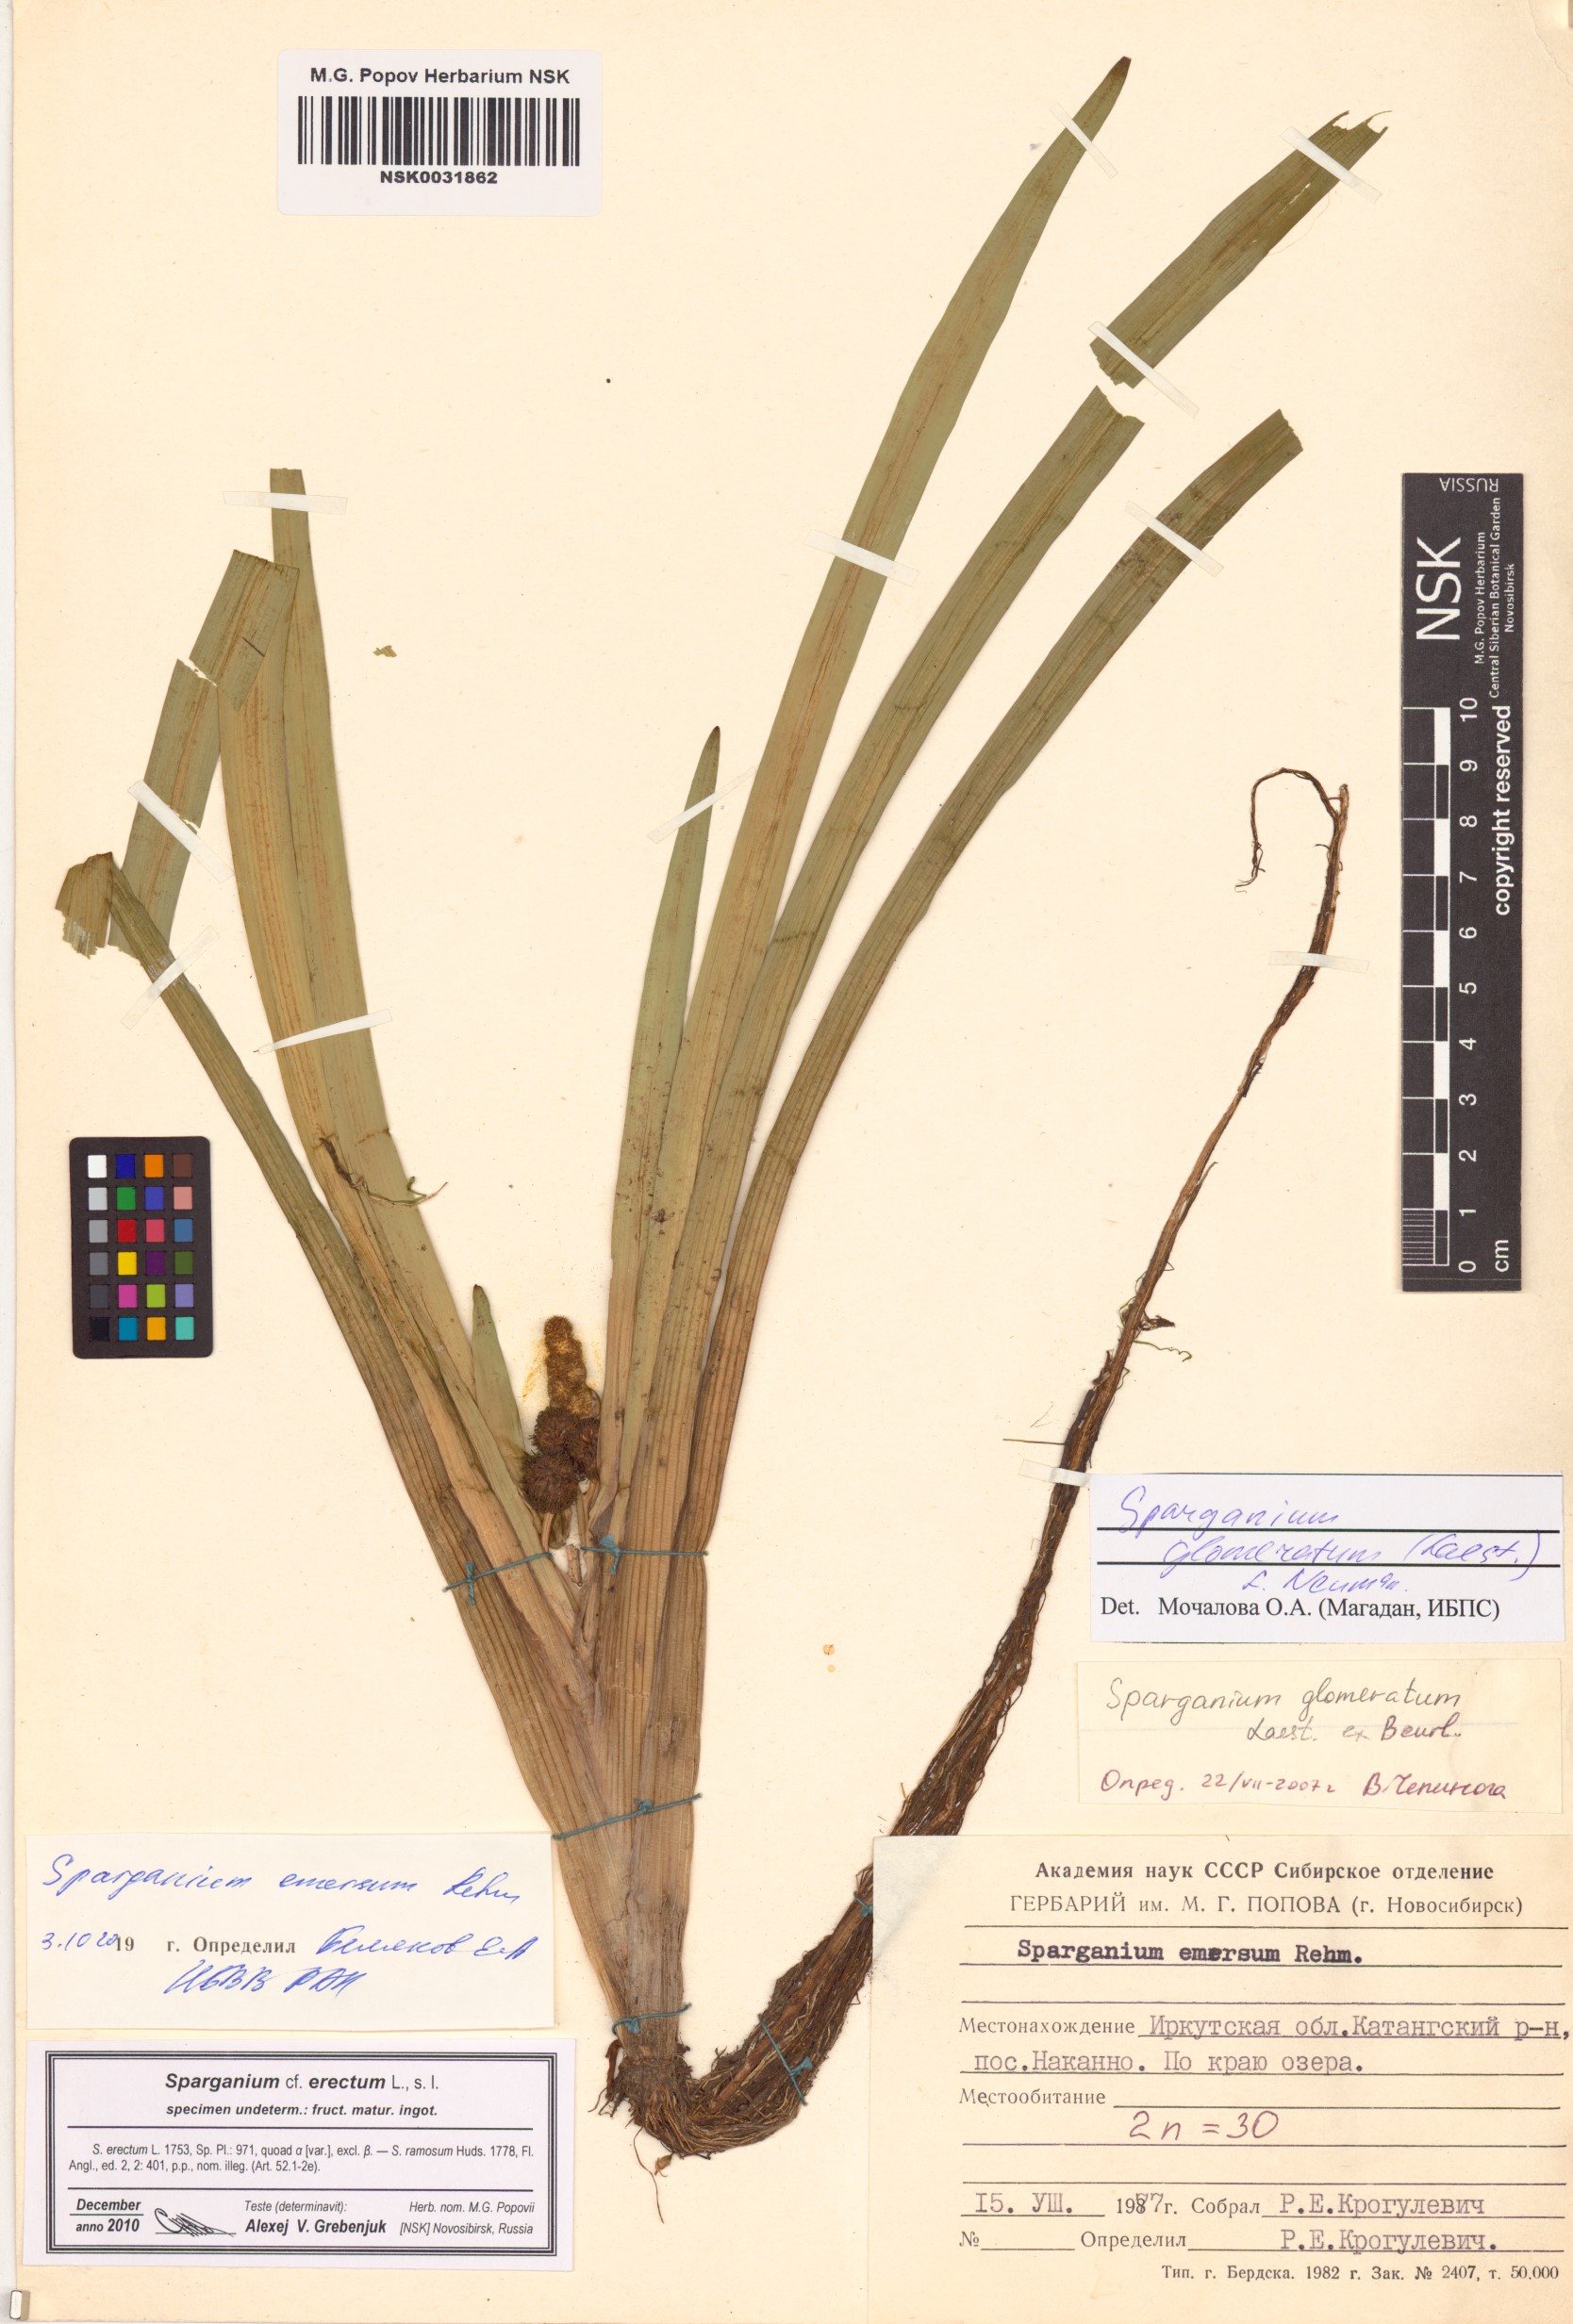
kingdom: Plantae
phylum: Tracheophyta
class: Liliopsida
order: Poales
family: Typhaceae
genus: Sparganium
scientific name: Sparganium emersum
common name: Unbranched bur-reed
